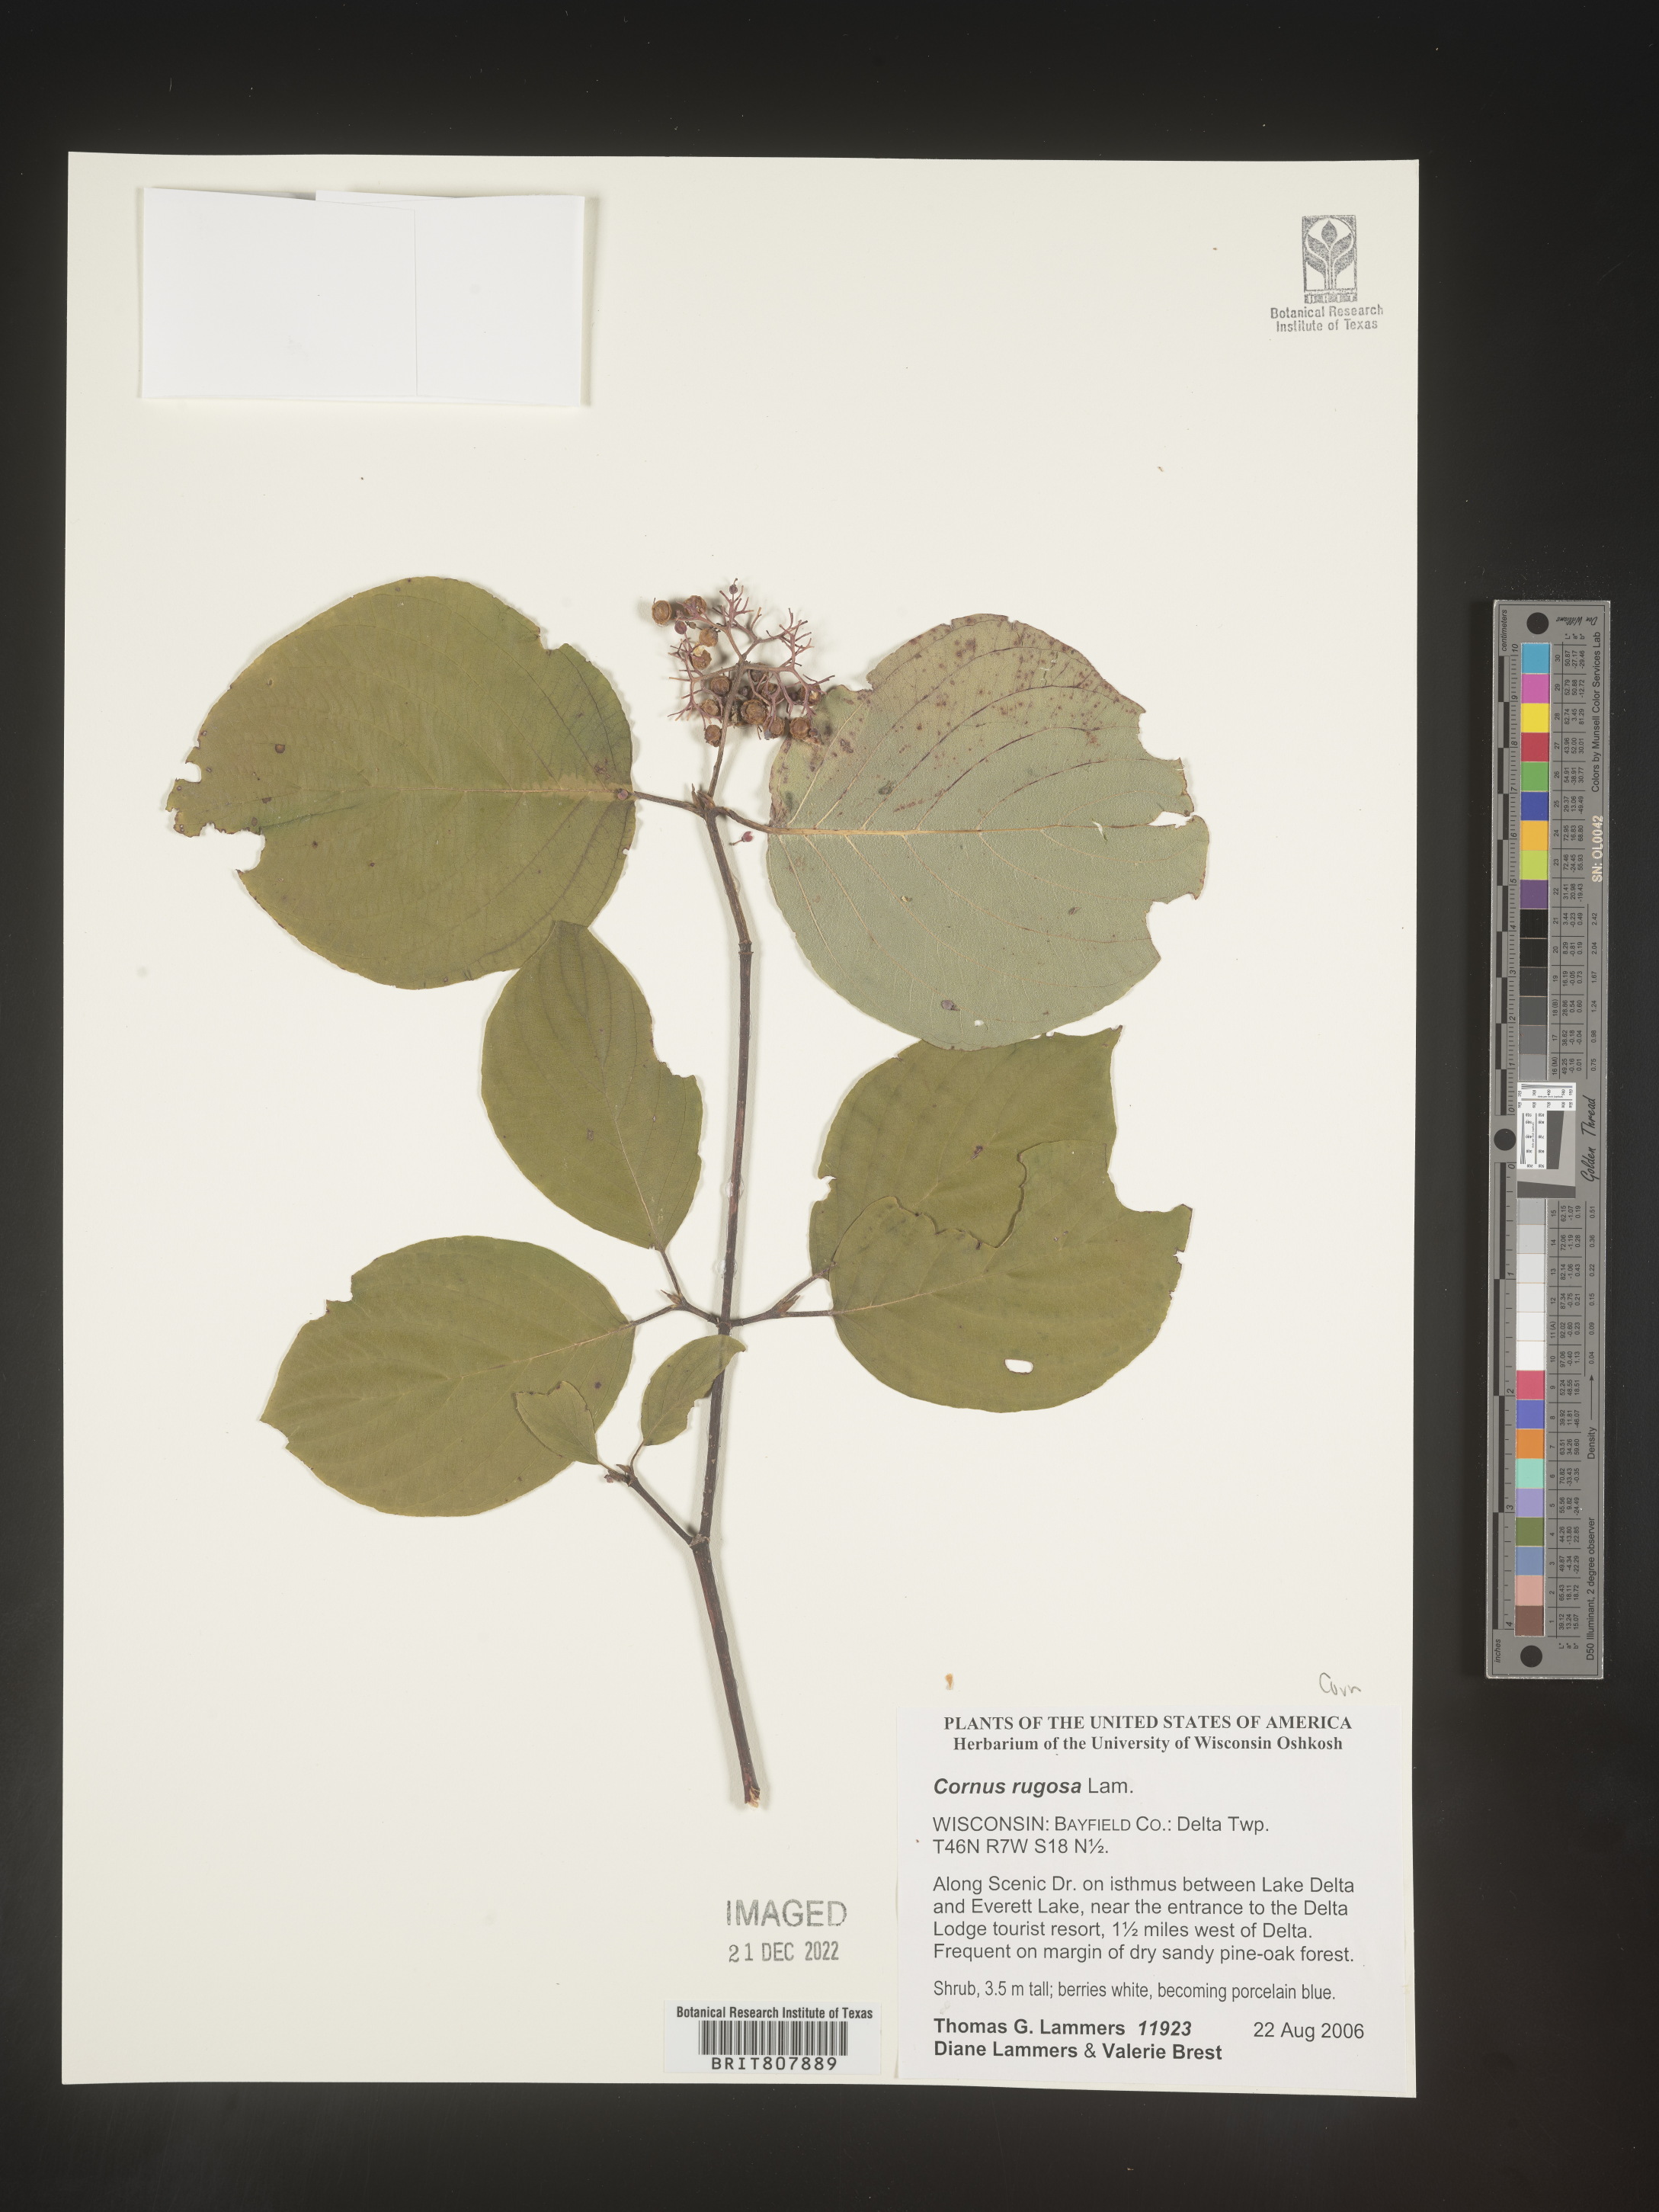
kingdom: Plantae
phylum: Tracheophyta
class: Magnoliopsida
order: Cornales
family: Cornaceae
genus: Cornus
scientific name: Cornus rugosa
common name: Round-leaf dogwood
